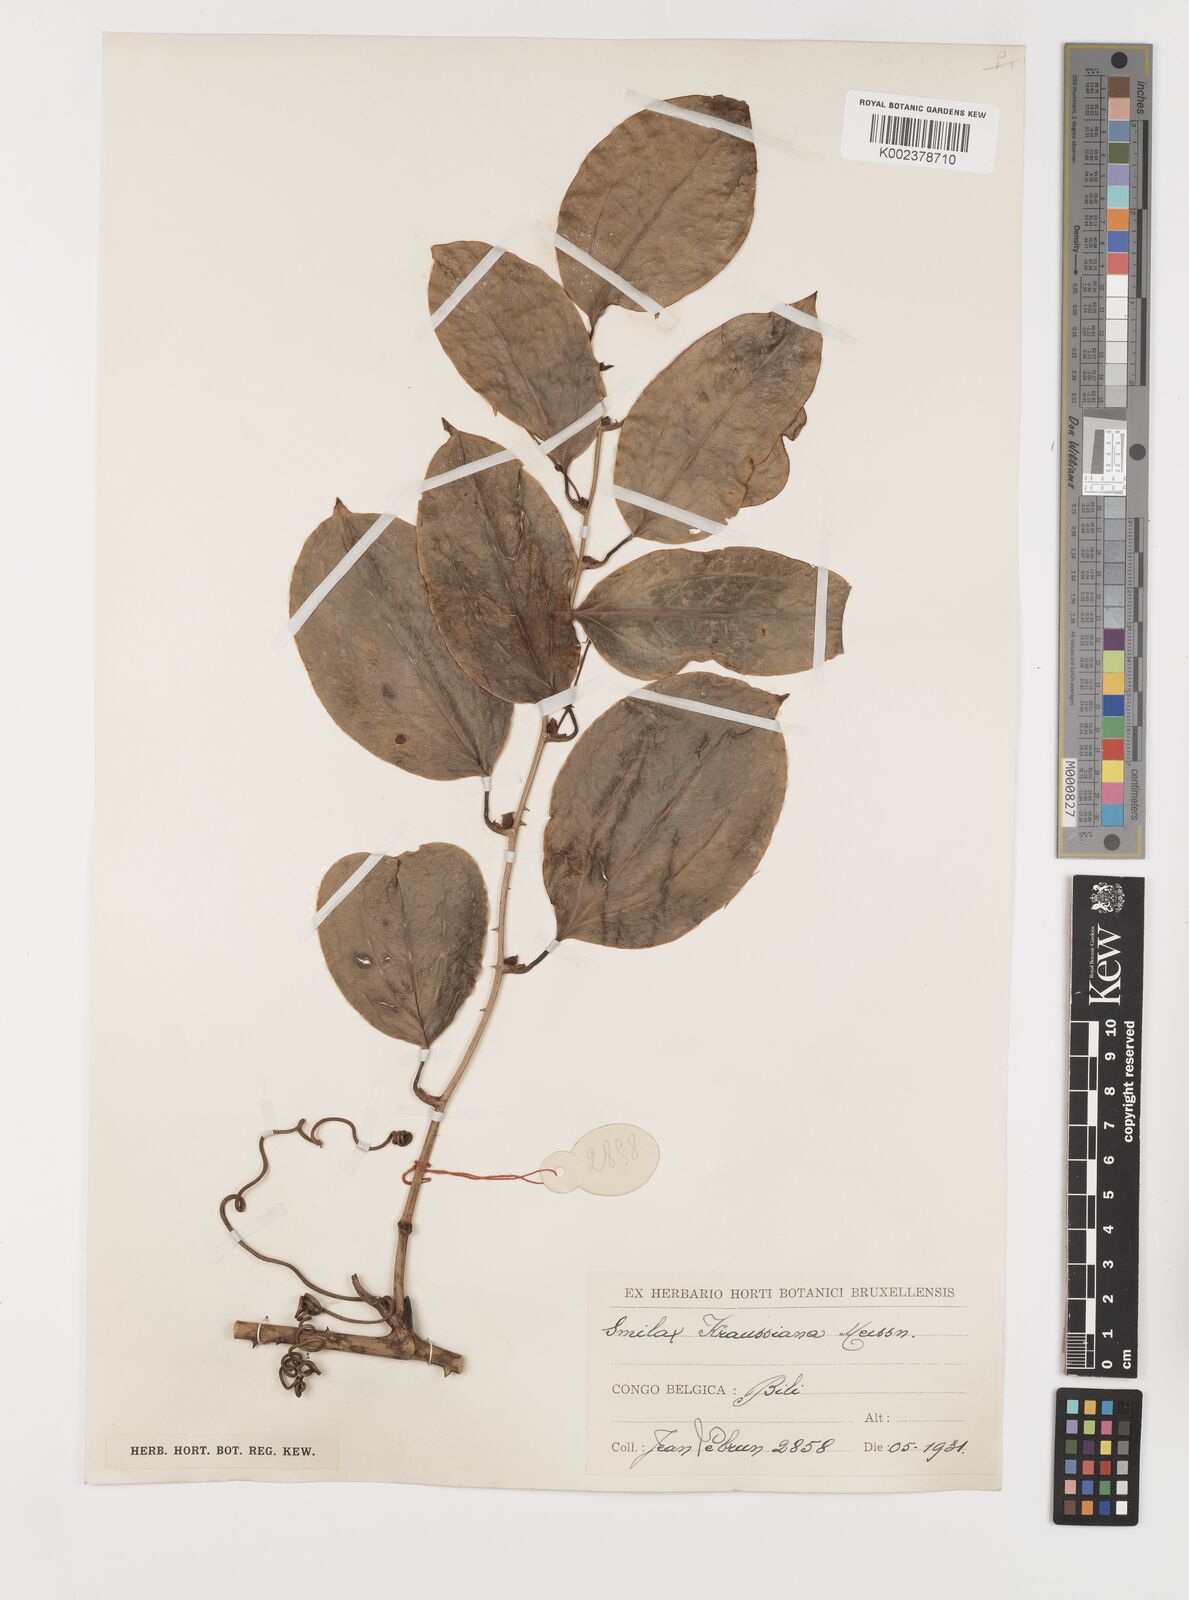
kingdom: Plantae
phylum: Tracheophyta
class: Liliopsida
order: Liliales
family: Smilacaceae
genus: Smilax
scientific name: Smilax anceps
